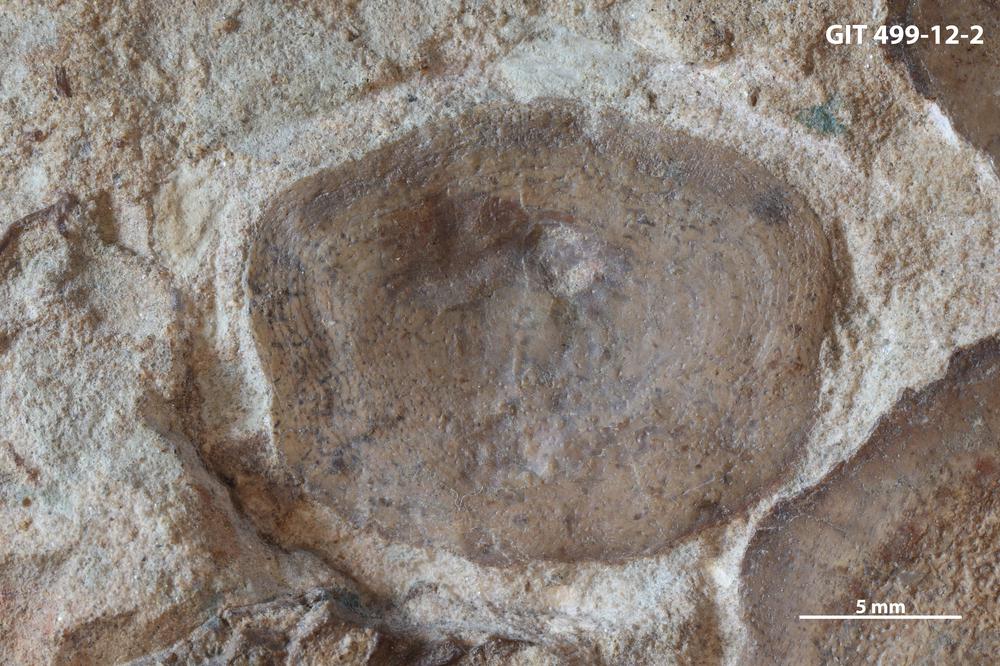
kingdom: Animalia
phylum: Chordata
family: Holoptychiidae
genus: Glyptolepis
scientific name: Glyptolepis
